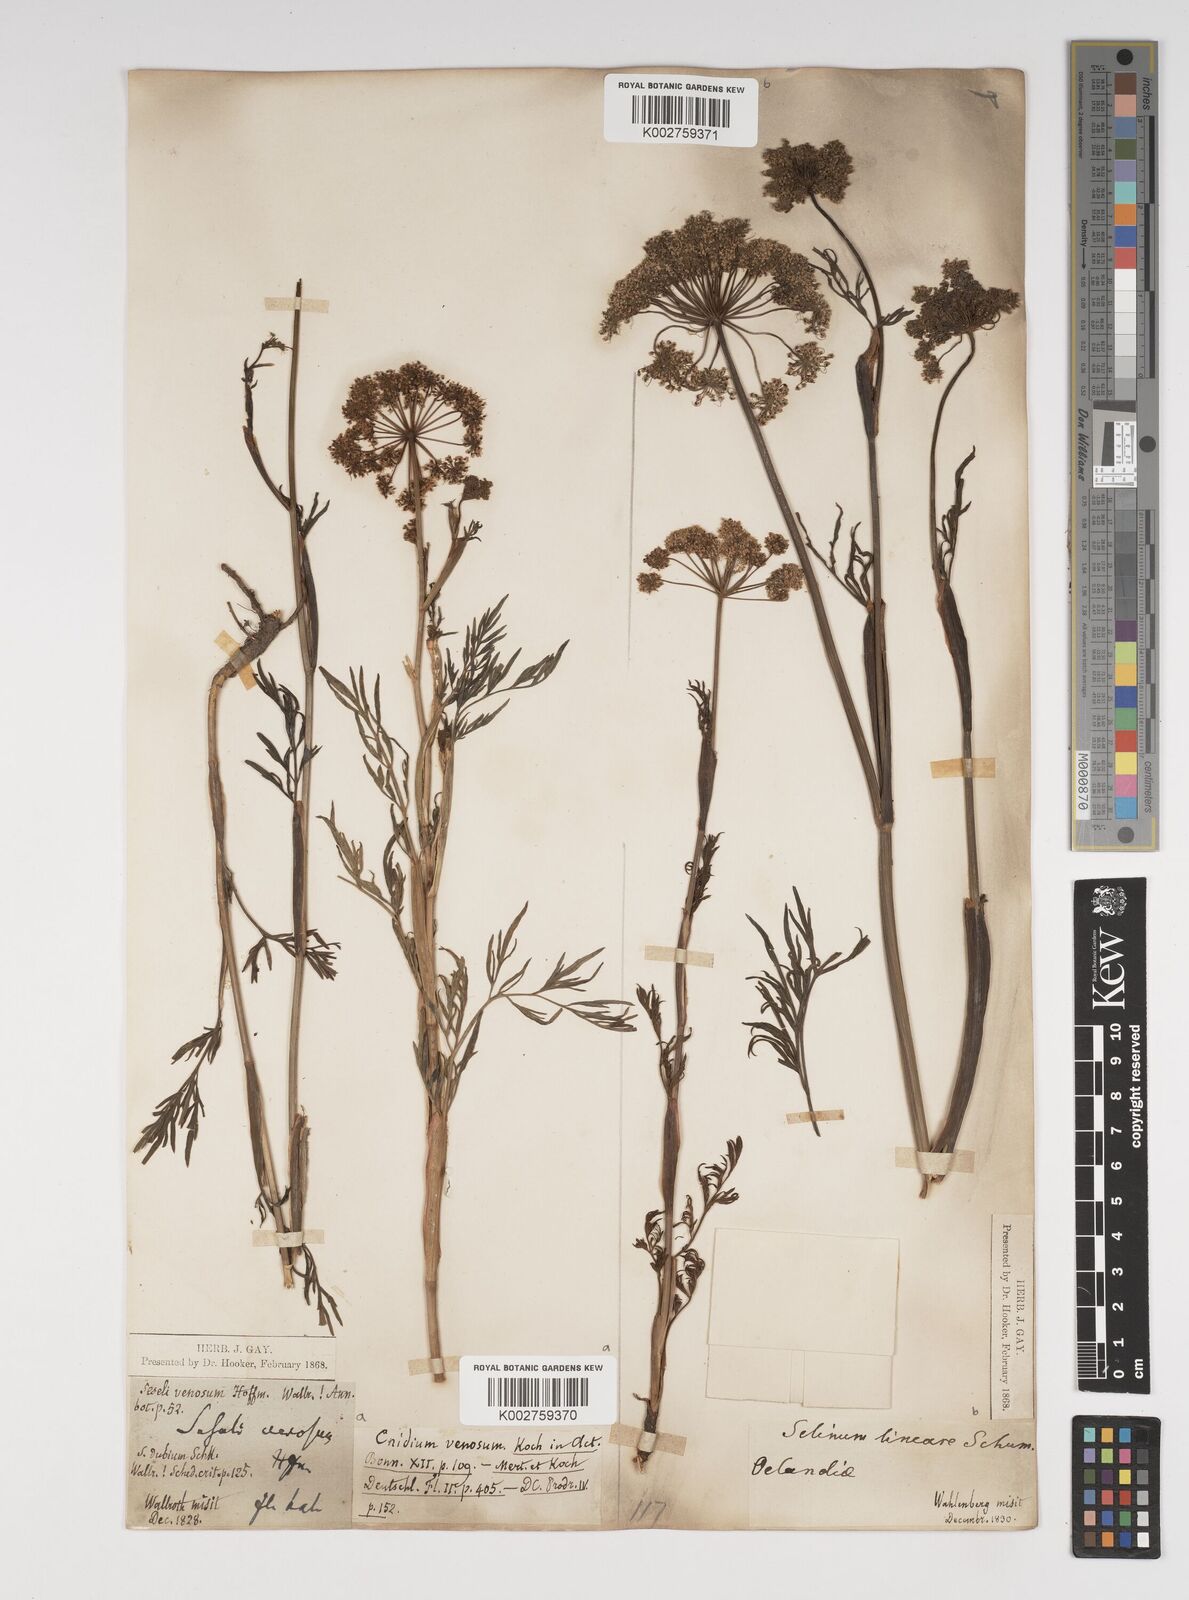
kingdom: Plantae
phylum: Tracheophyta
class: Magnoliopsida
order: Apiales
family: Apiaceae
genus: Kadenia
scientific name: Kadenia dubia
